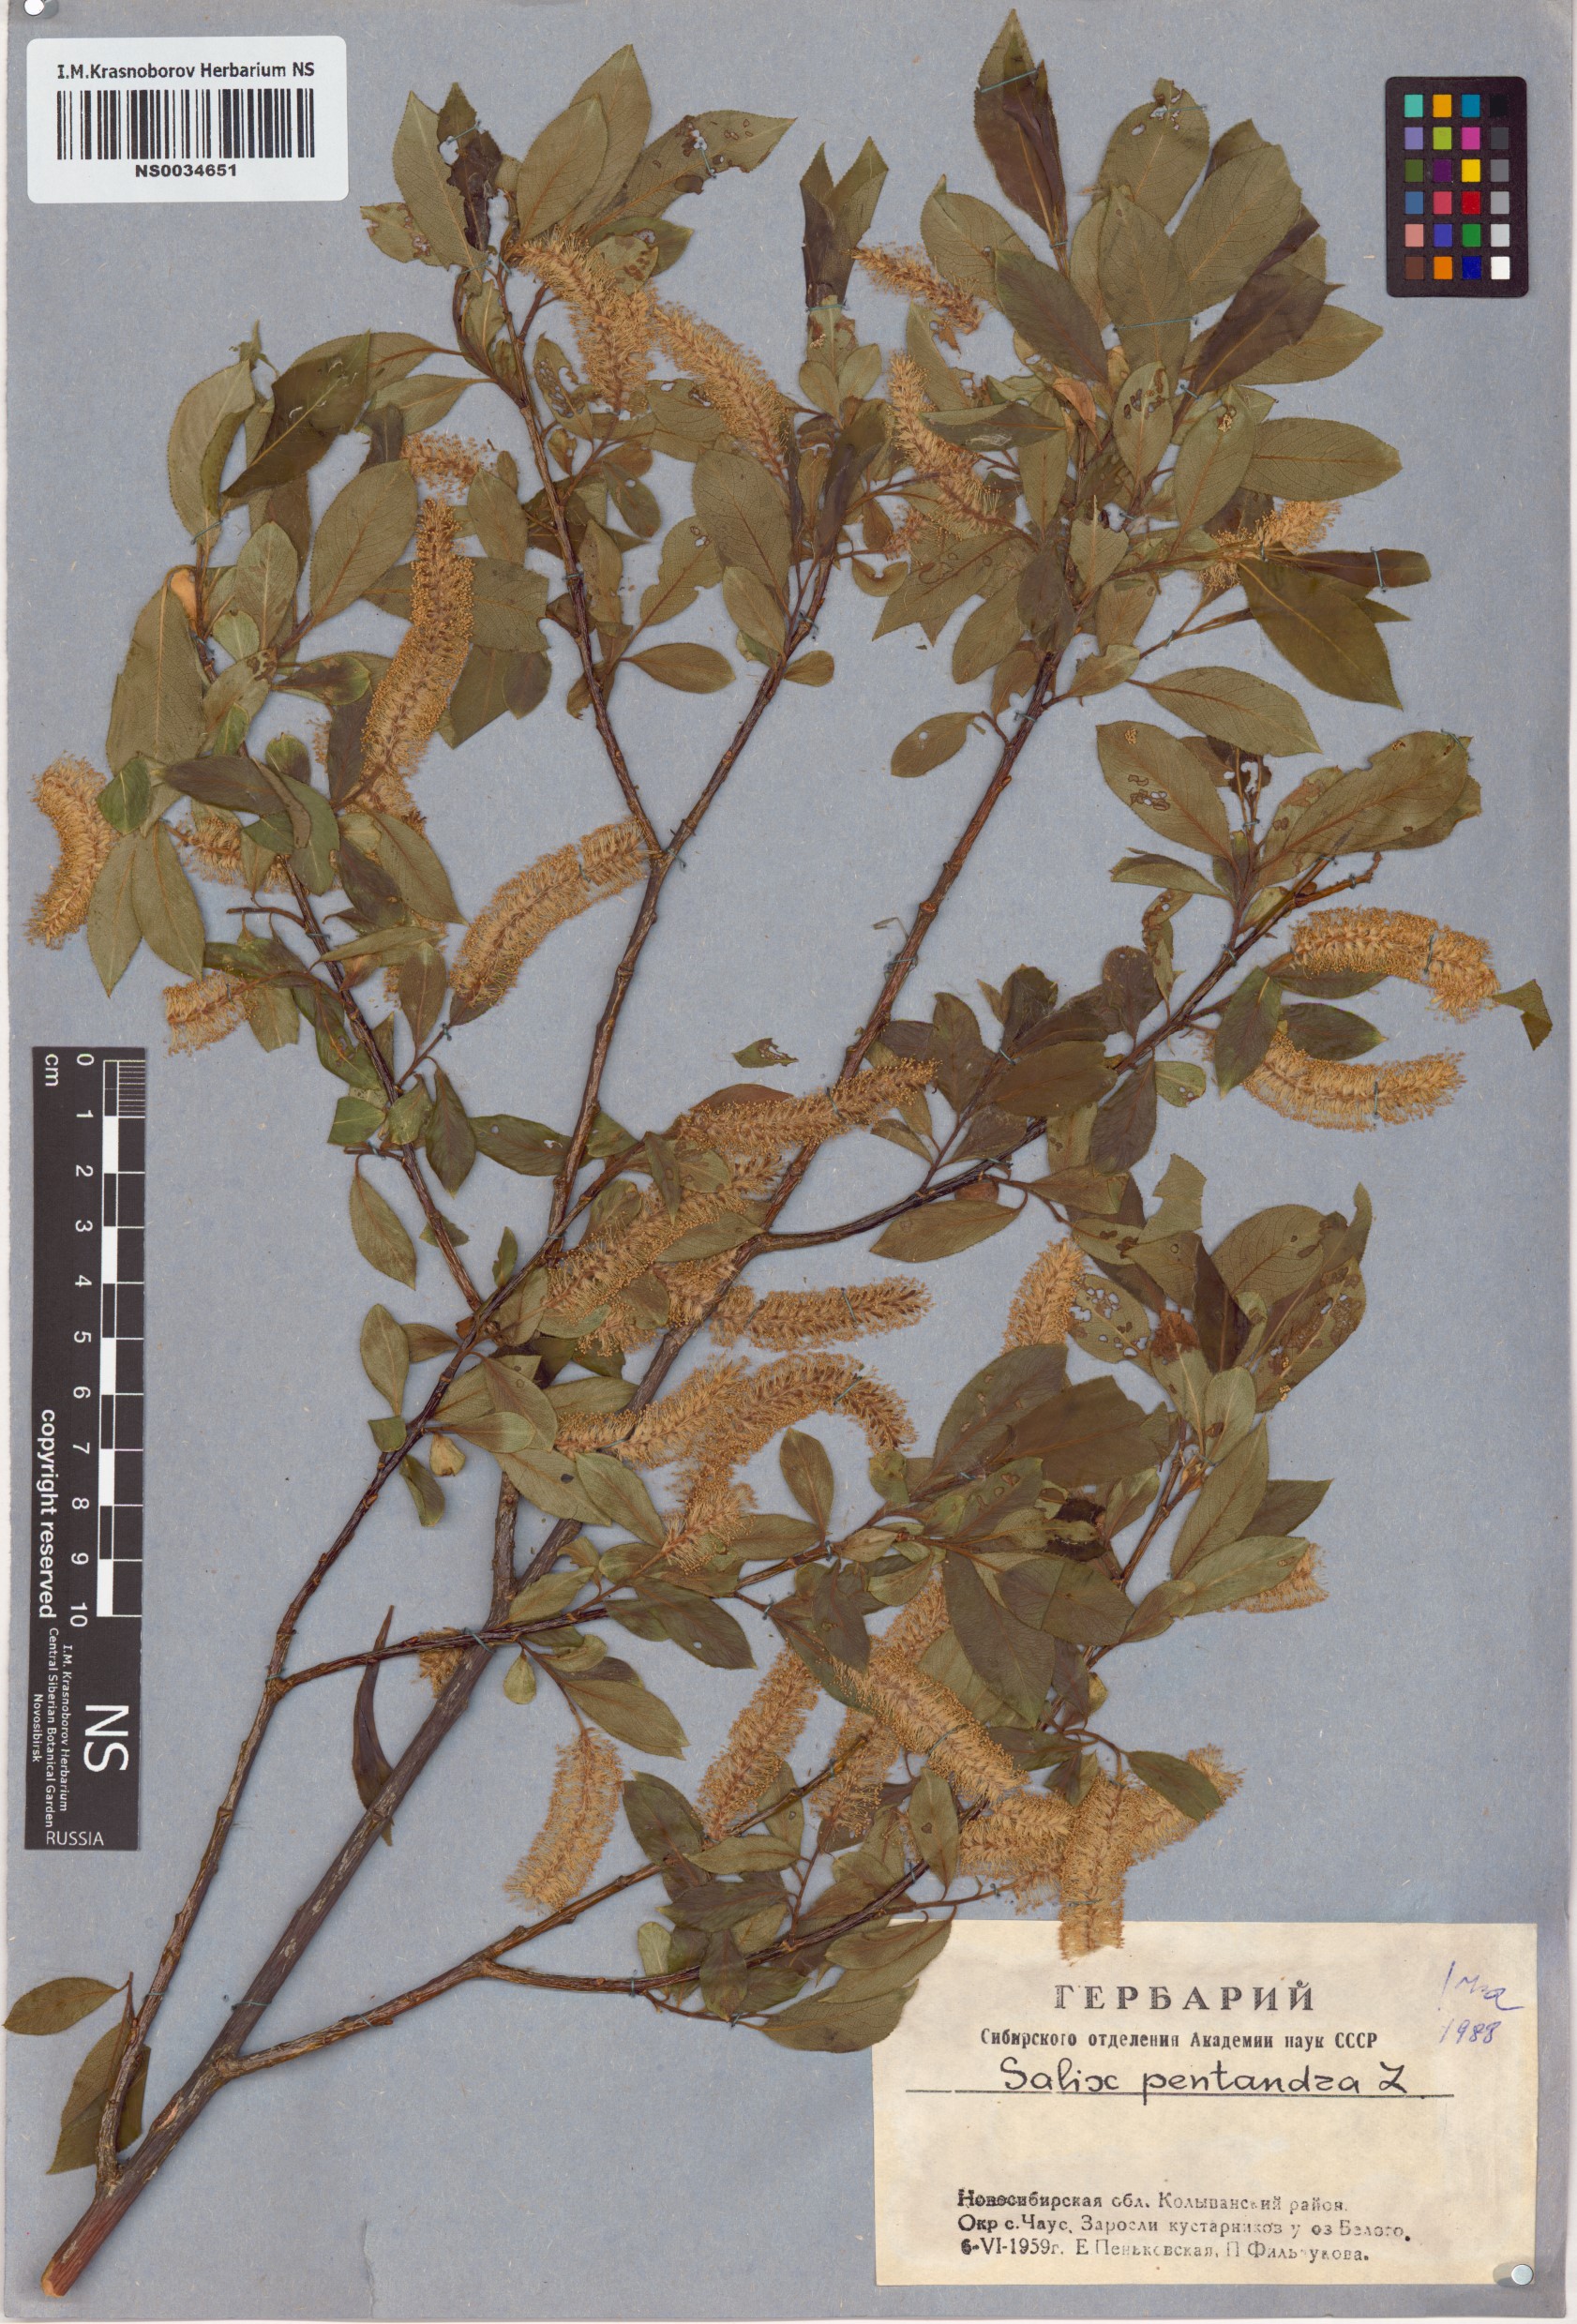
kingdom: Plantae
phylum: Tracheophyta
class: Magnoliopsida
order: Malpighiales
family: Salicaceae
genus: Salix
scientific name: Salix pentandra
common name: Bay willow
